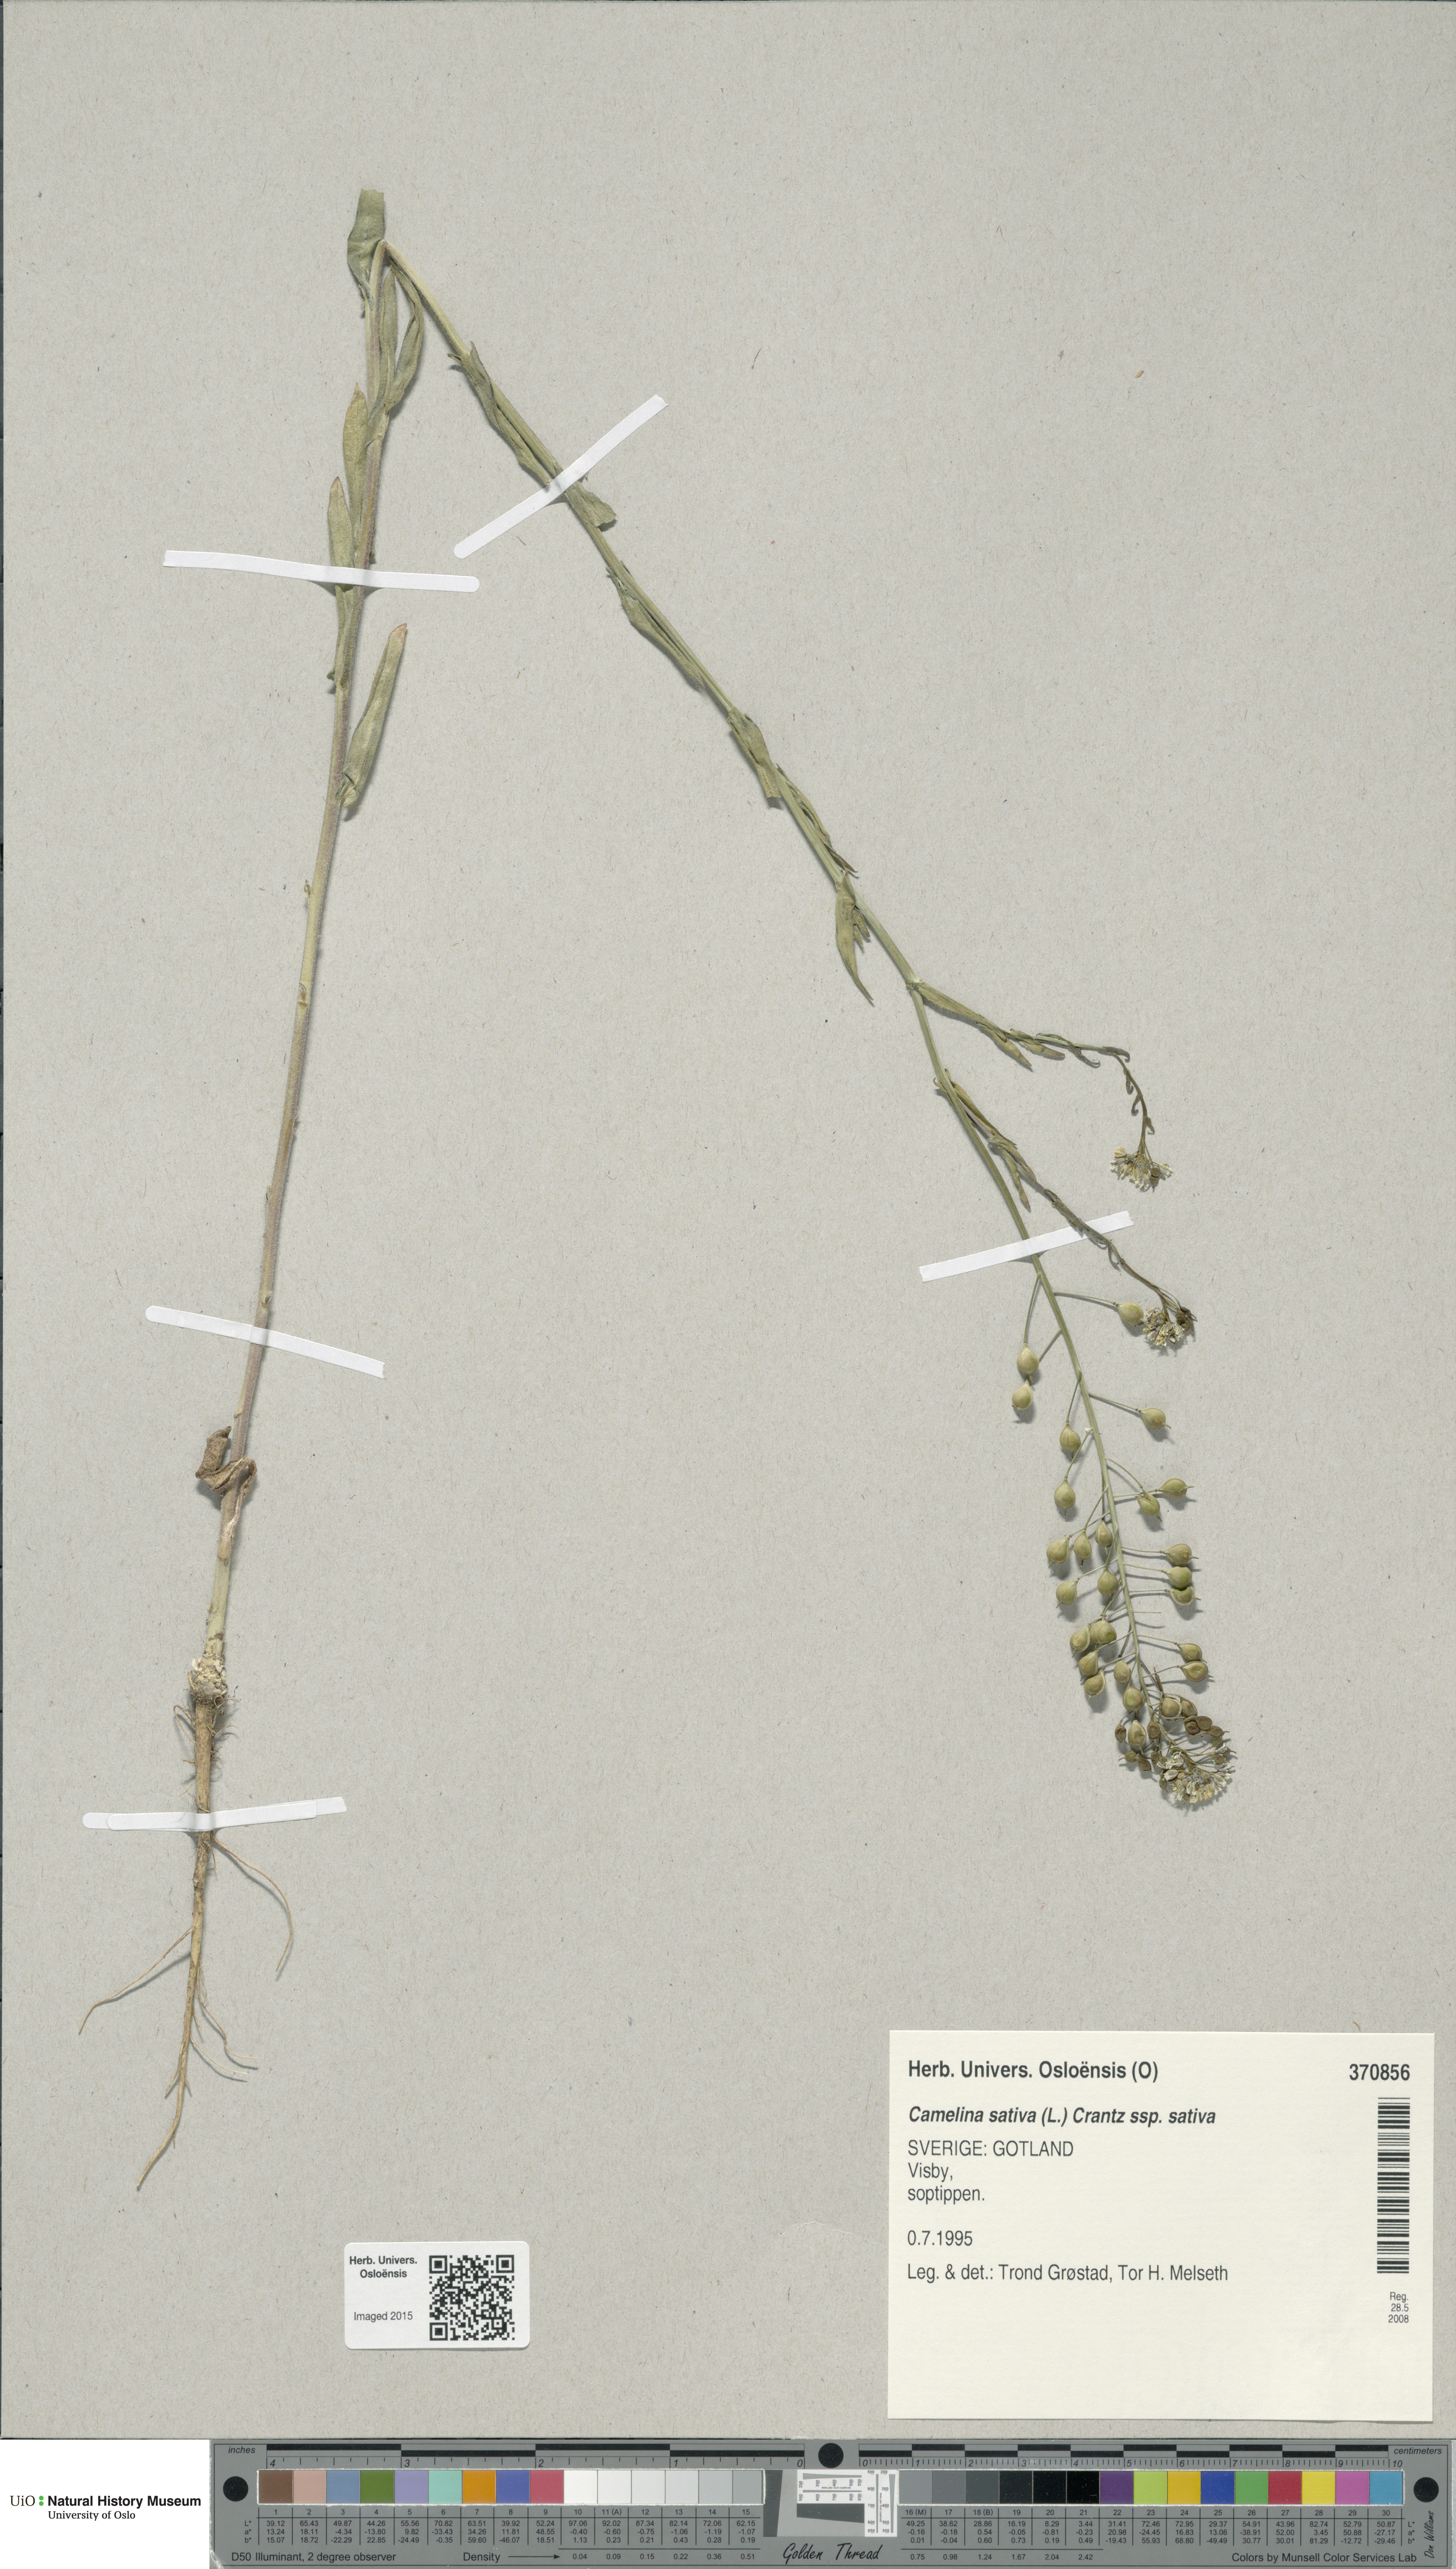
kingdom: Plantae
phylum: Tracheophyta
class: Magnoliopsida
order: Brassicales
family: Brassicaceae
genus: Camelina
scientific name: Camelina sativa
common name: Gold-of-pleasure
